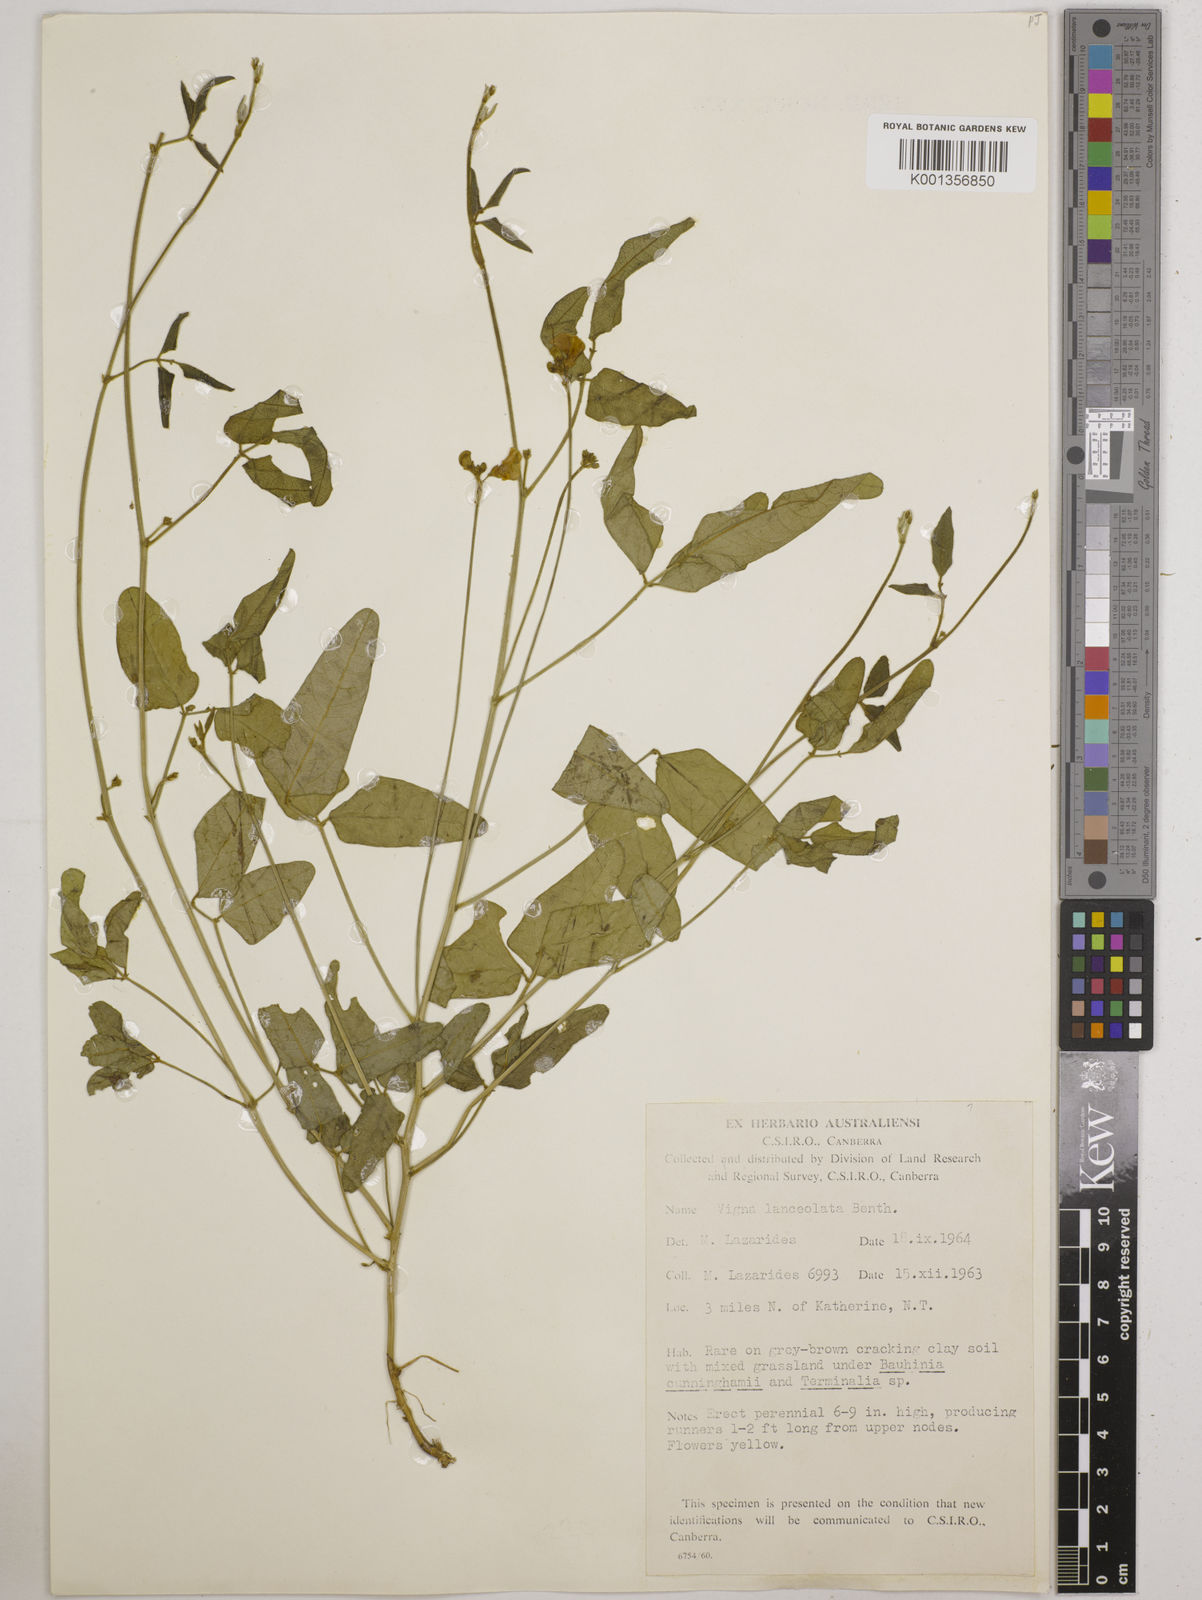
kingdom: Plantae
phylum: Tracheophyta
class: Magnoliopsida
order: Fabales
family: Fabaceae
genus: Vigna
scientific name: Vigna lanceolata
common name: Maloga-bean
